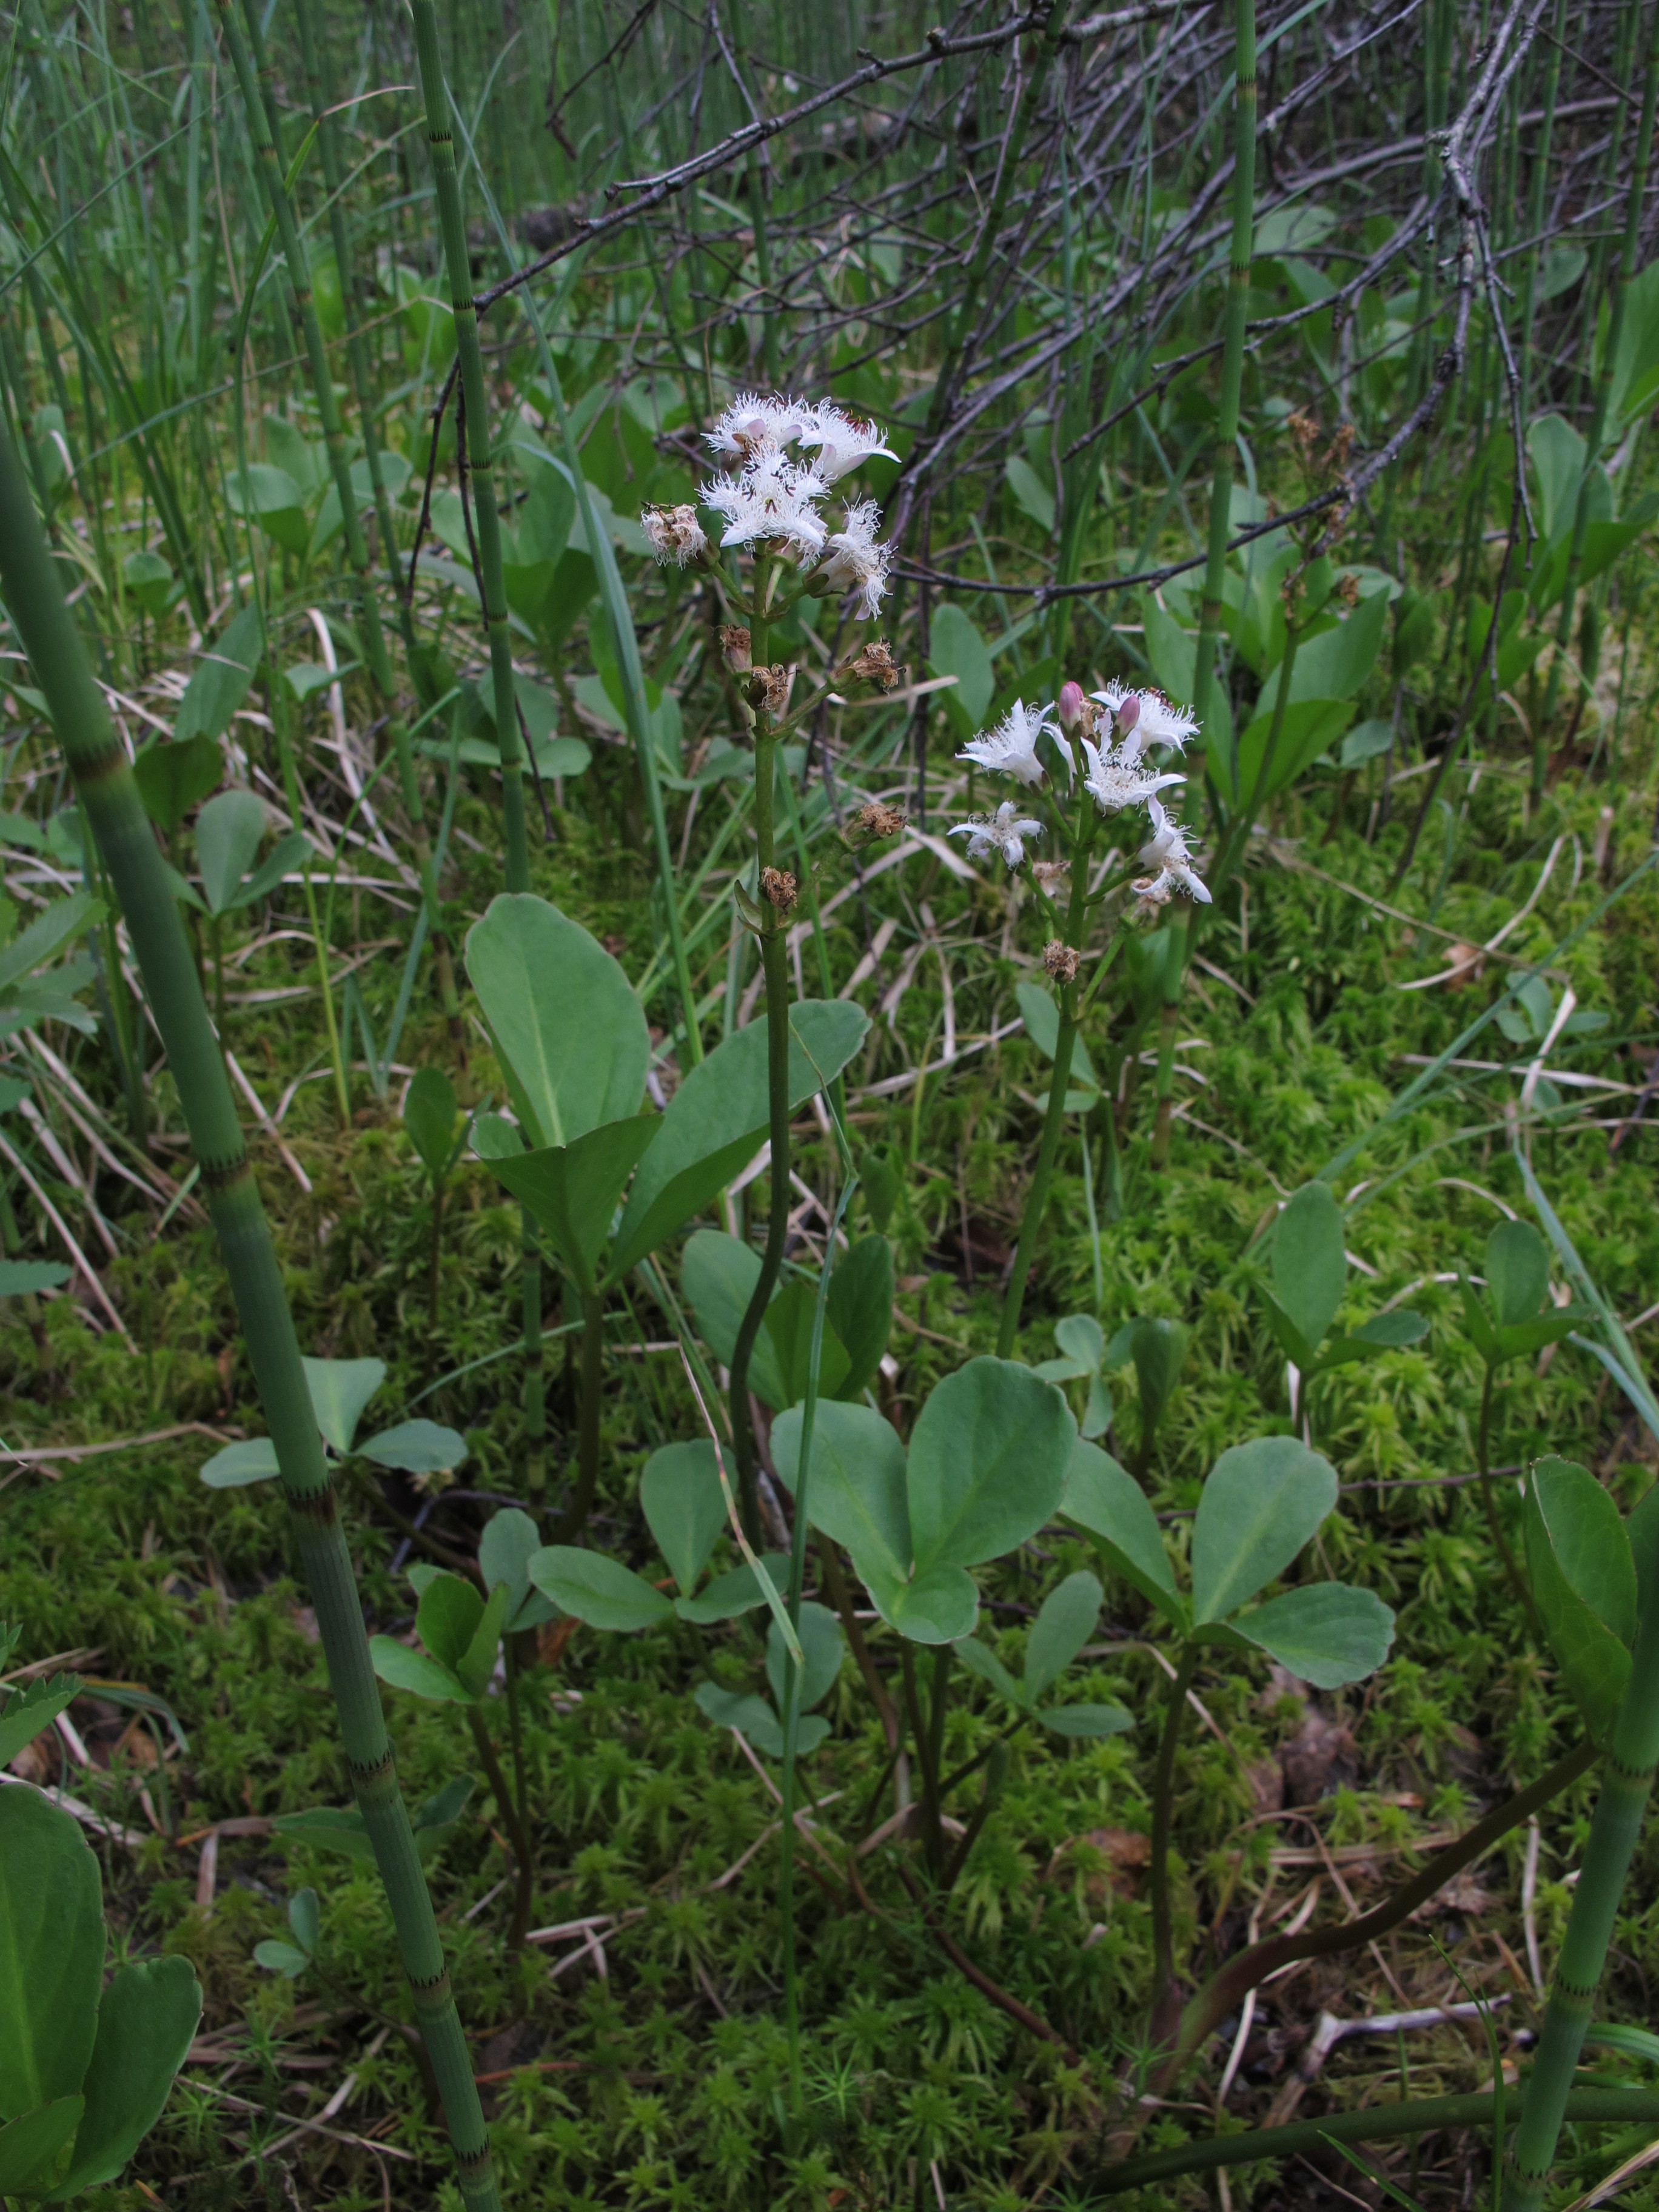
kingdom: Plantae
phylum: Tracheophyta
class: Magnoliopsida
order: Asterales
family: Menyanthaceae
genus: Menyanthes
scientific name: Menyanthes trifoliata
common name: Bogbean
